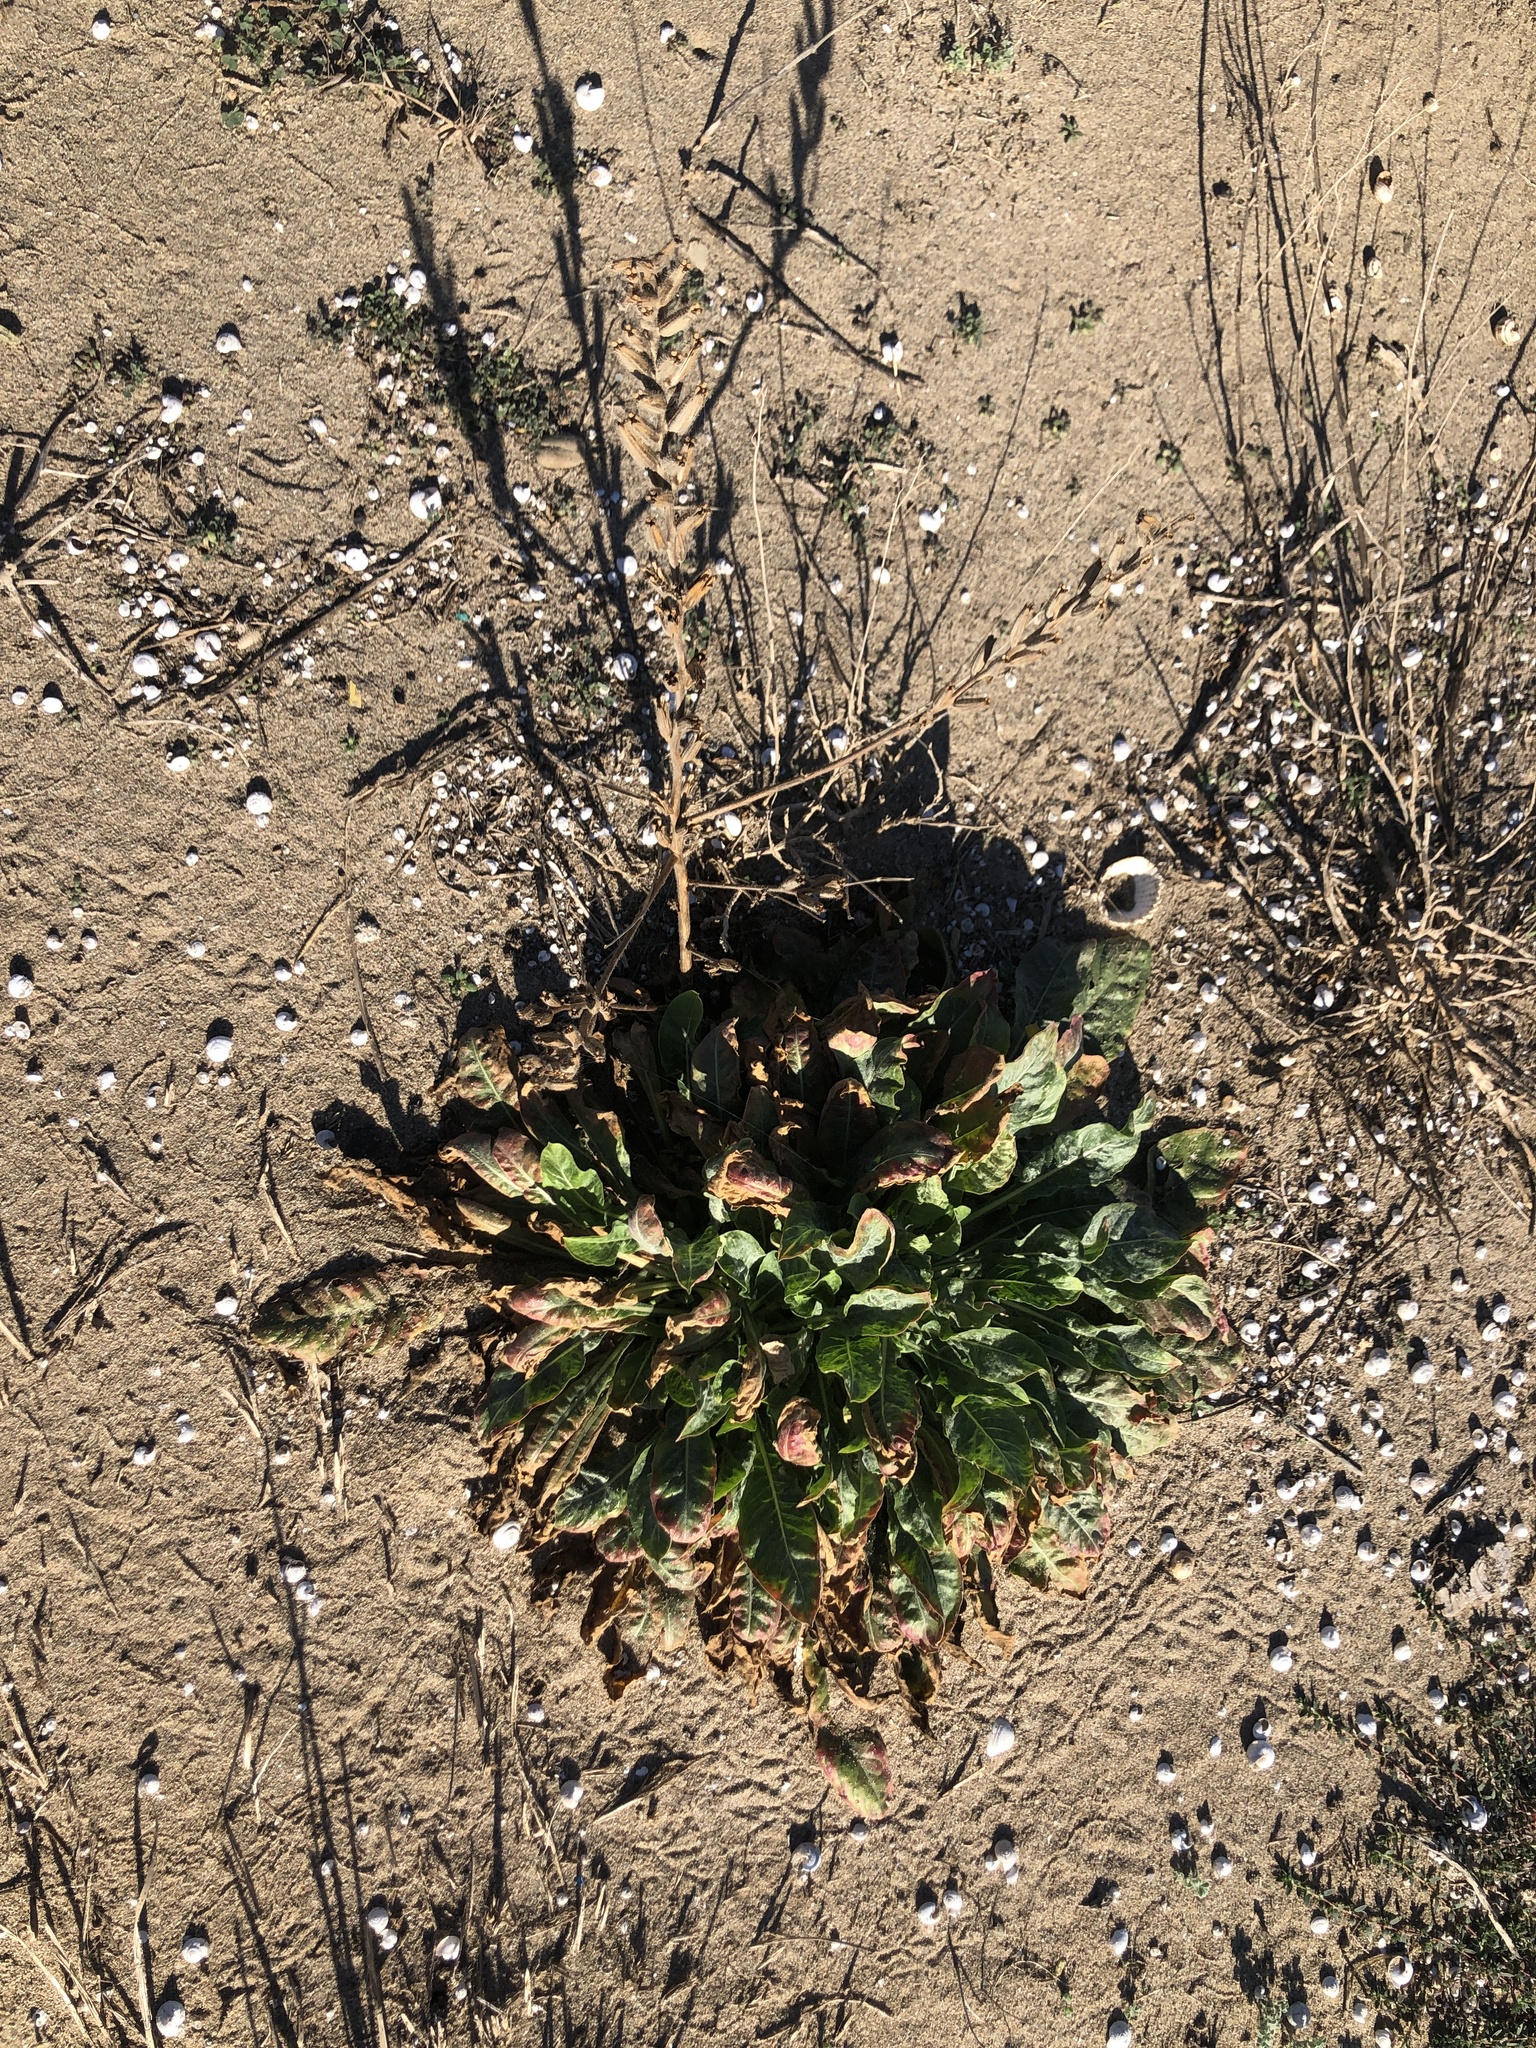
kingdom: Plantae
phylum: Tracheophyta
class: Magnoliopsida
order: Myrtales
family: Onagraceae
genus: Oenothera
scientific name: Oenothera glazioviana
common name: Large-flowered evening-primrose
